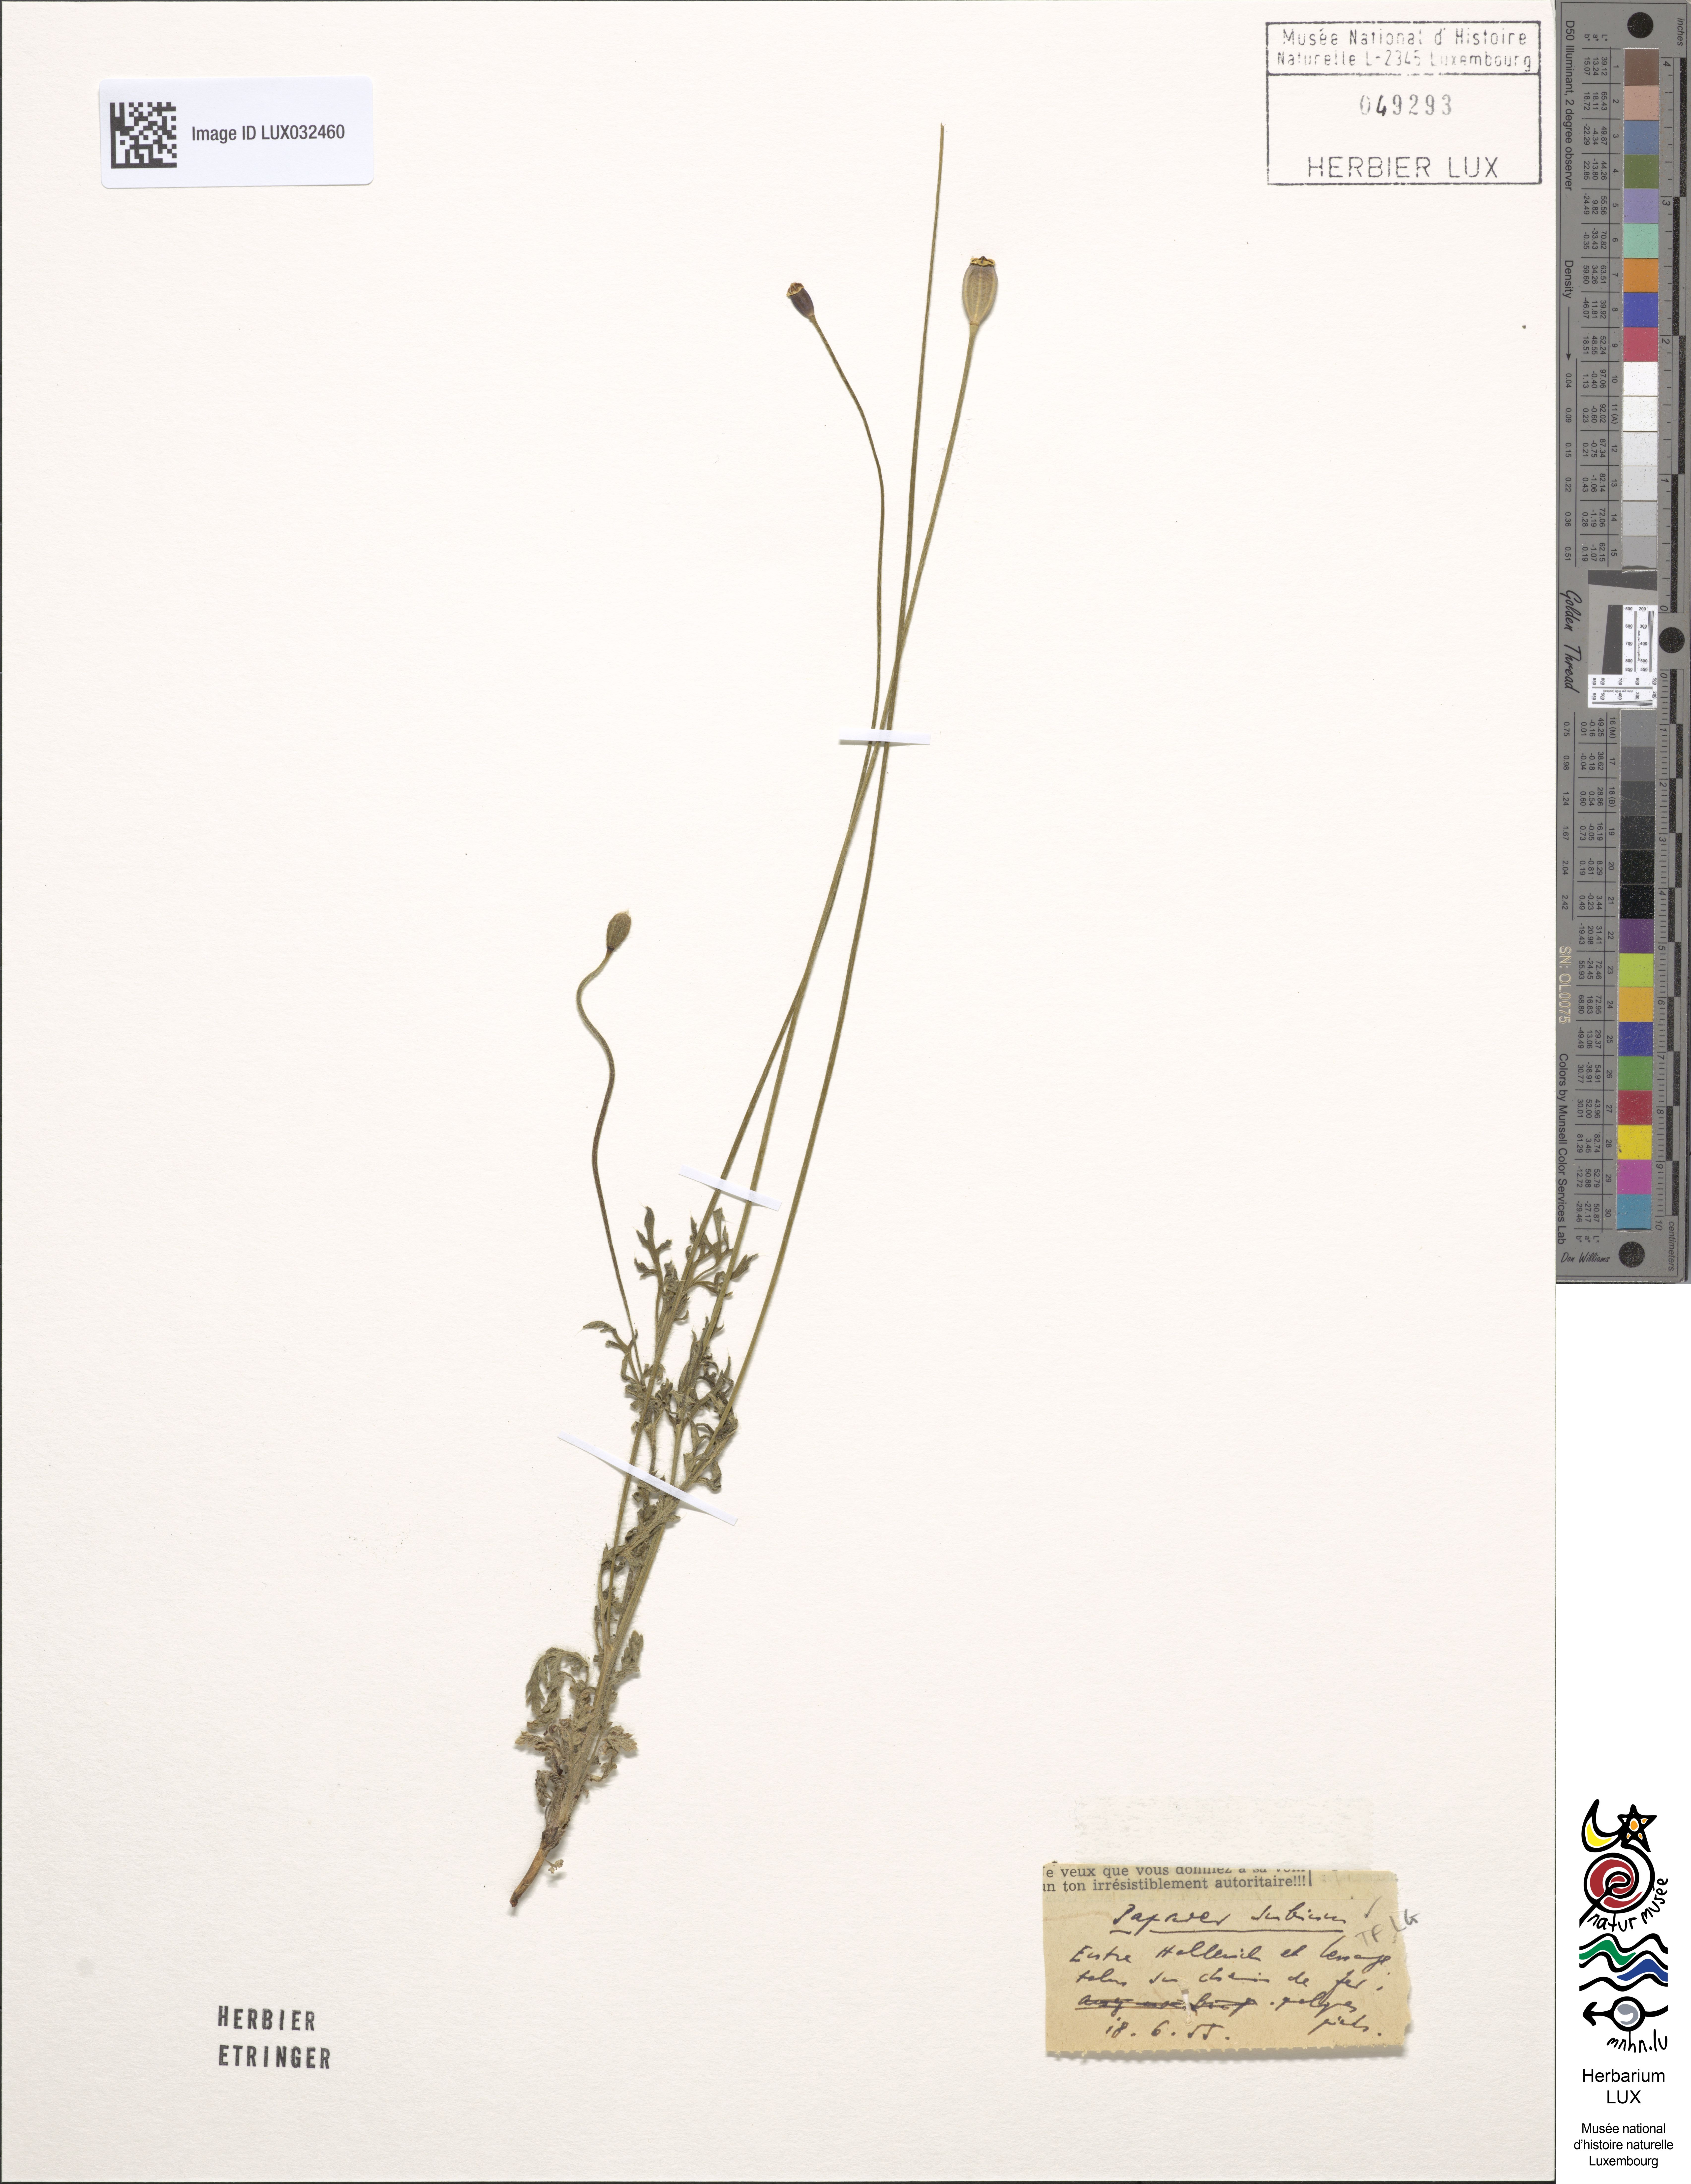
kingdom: Plantae
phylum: Tracheophyta
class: Magnoliopsida
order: Ranunculales
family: Papaveraceae
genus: Papaver
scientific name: Papaver dubium
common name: Long-headed poppy
